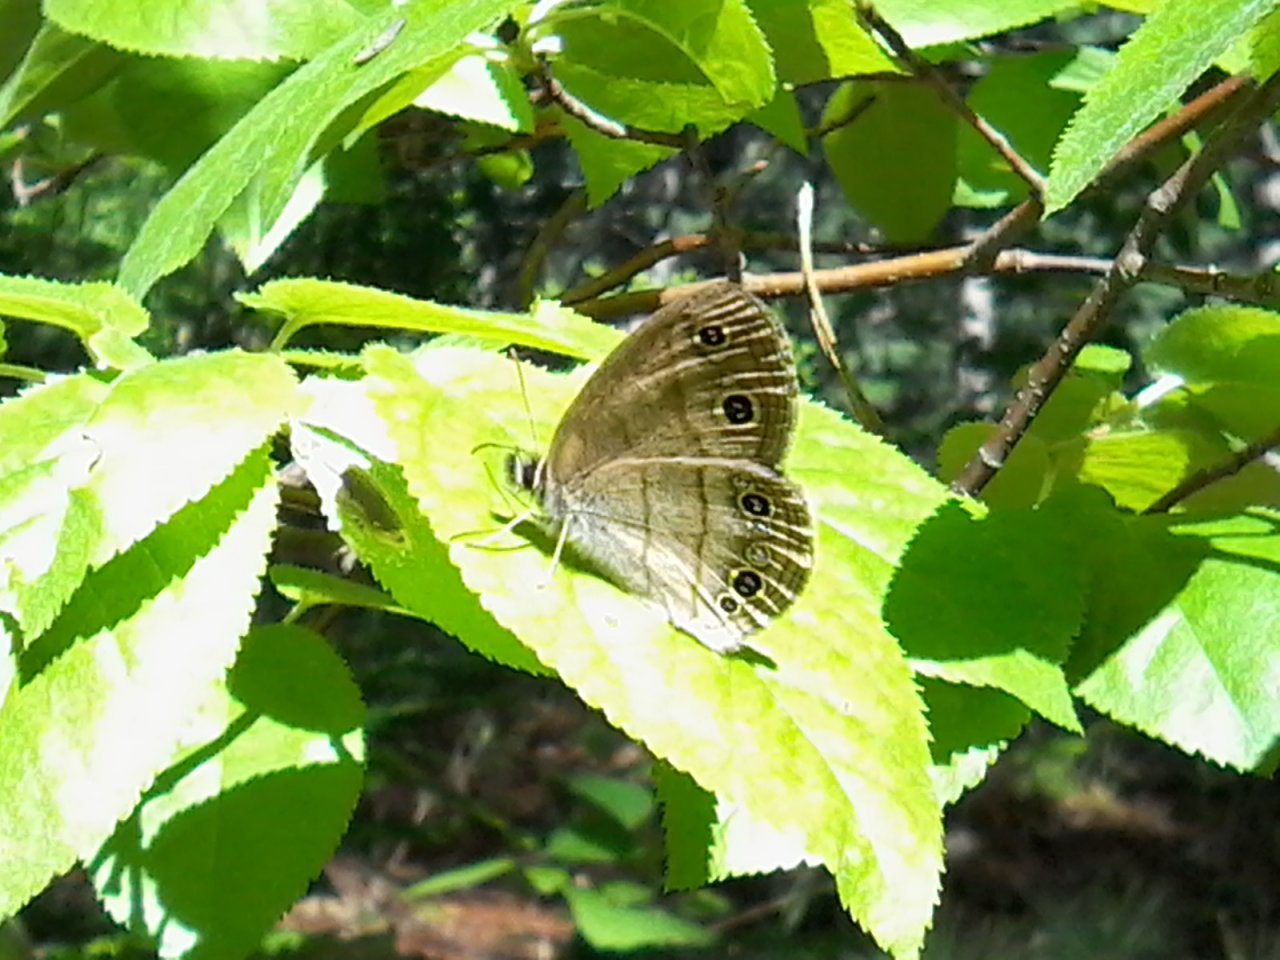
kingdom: Animalia
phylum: Arthropoda
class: Insecta
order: Lepidoptera
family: Nymphalidae
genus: Euptychia
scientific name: Euptychia cymela
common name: Little Wood Satyr
